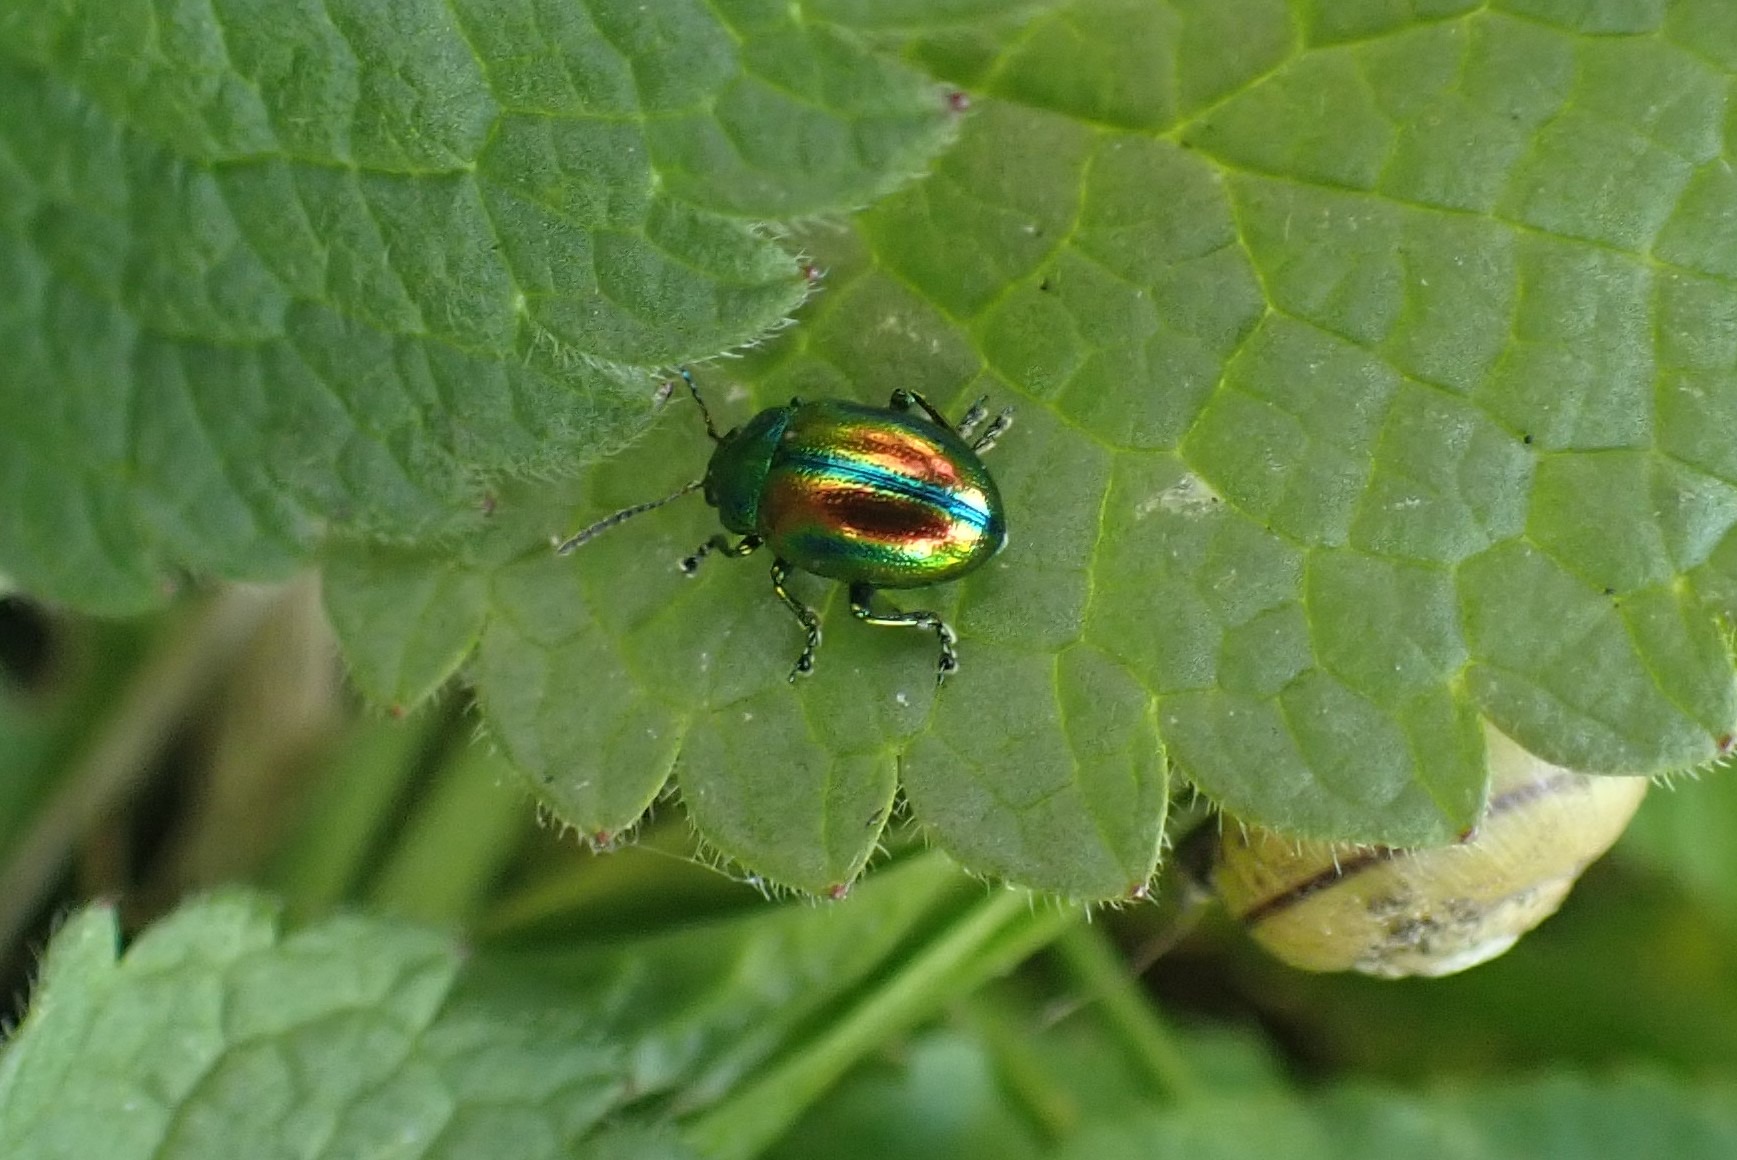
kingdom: Animalia
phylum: Arthropoda
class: Insecta
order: Coleoptera
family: Chrysomelidae
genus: Chrysolina
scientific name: Chrysolina fastuosa
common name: Tvetandbladbille
